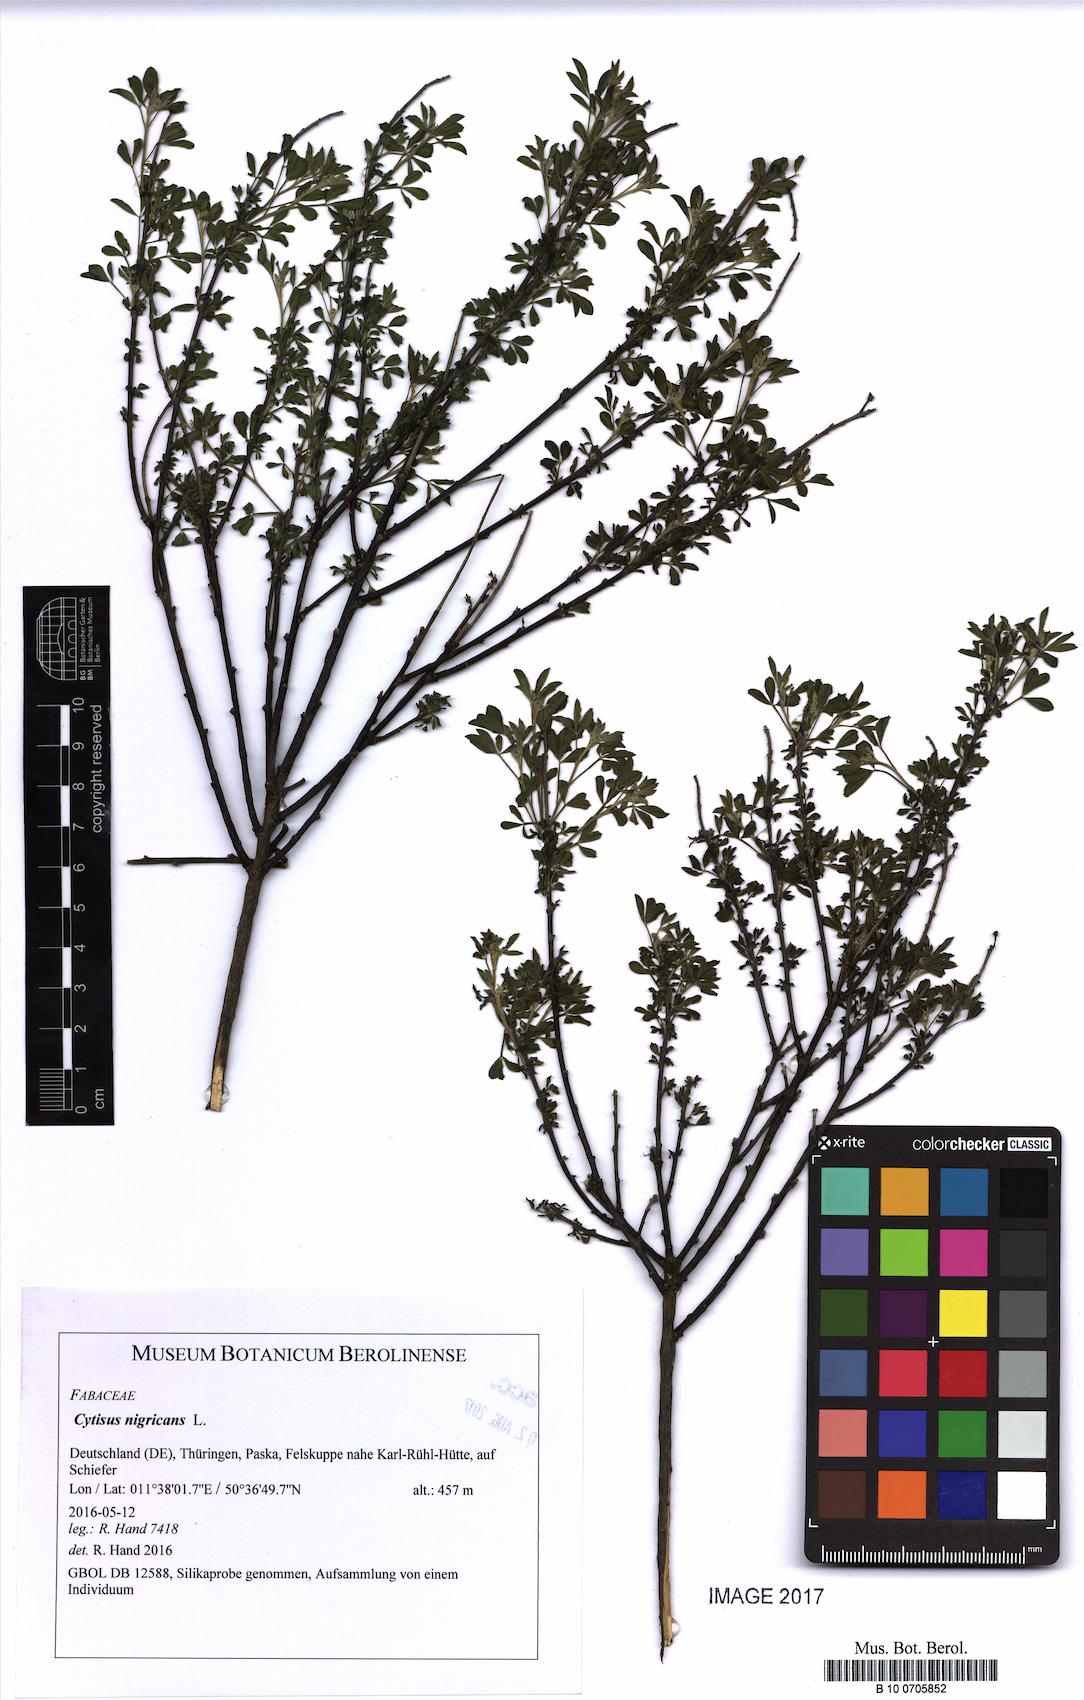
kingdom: Plantae
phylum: Tracheophyta
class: Magnoliopsida
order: Fabales
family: Fabaceae
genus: Cytisus
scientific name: Cytisus nigricans
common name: Black broom
